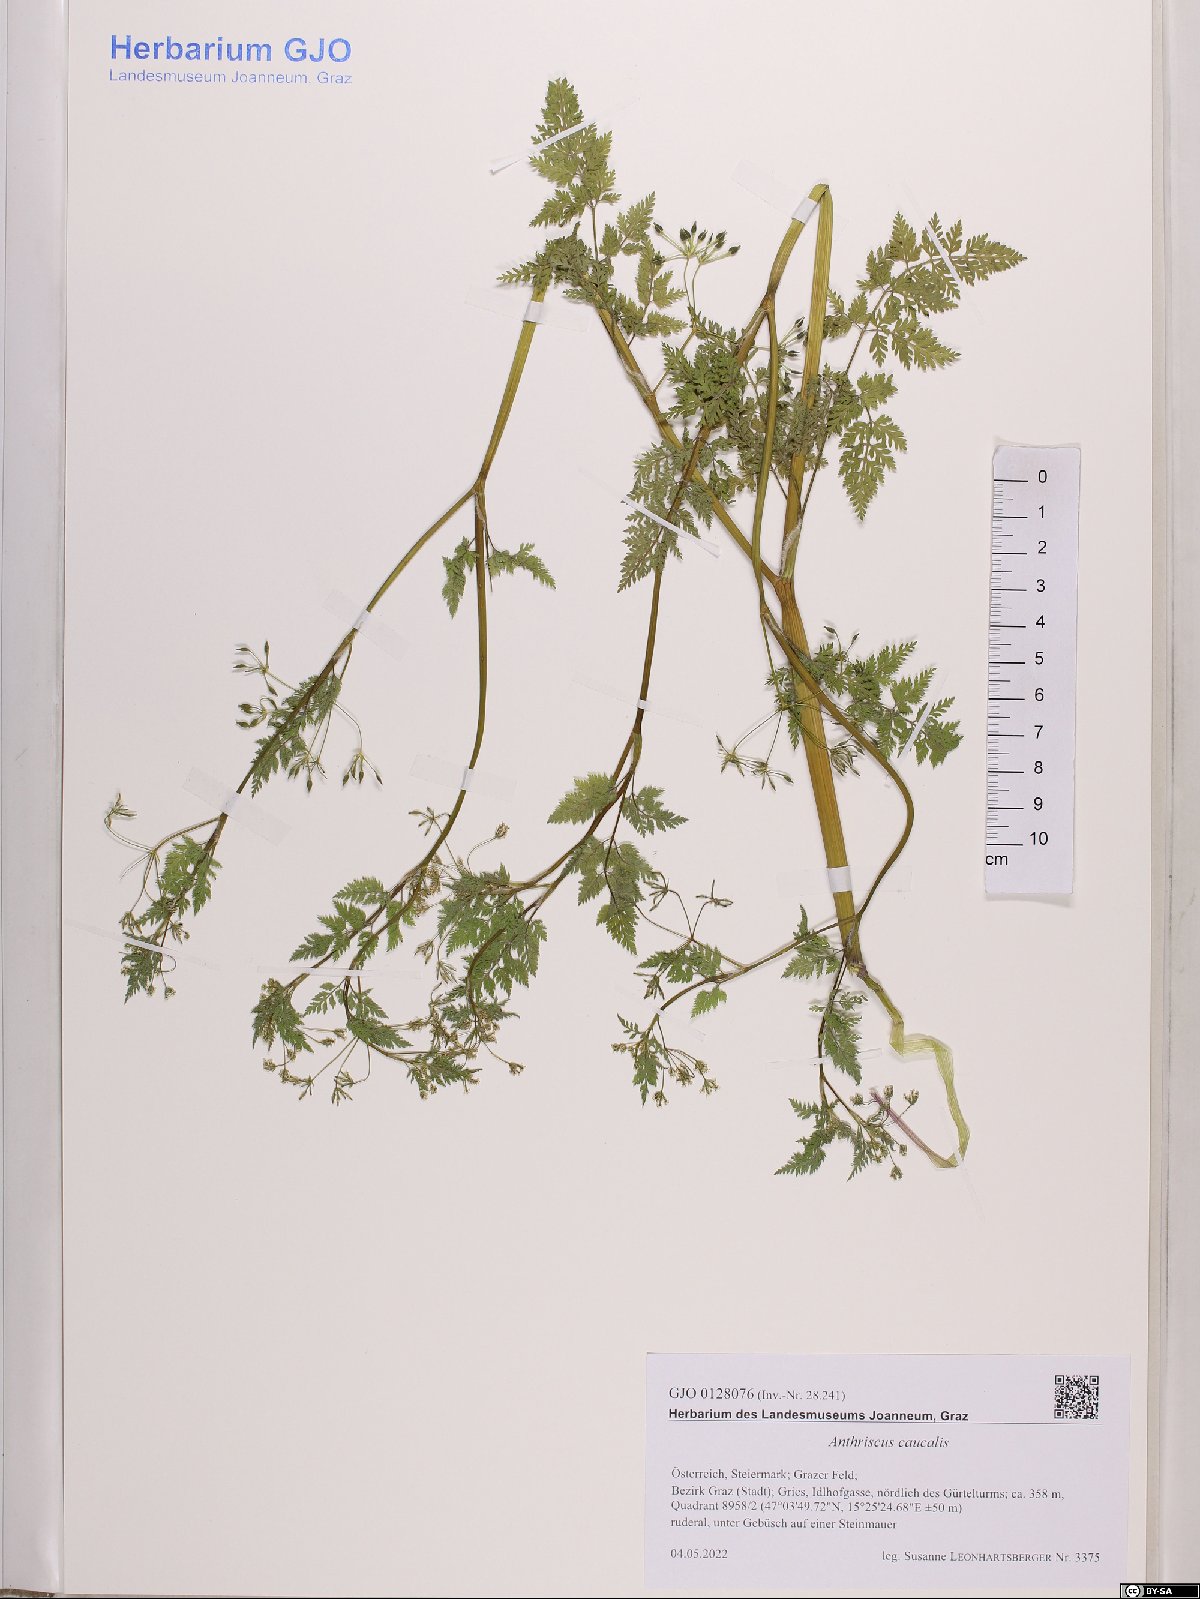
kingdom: Plantae
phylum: Tracheophyta
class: Magnoliopsida
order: Apiales
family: Apiaceae
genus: Anthriscus
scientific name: Anthriscus caucalis
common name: Bur chervil
